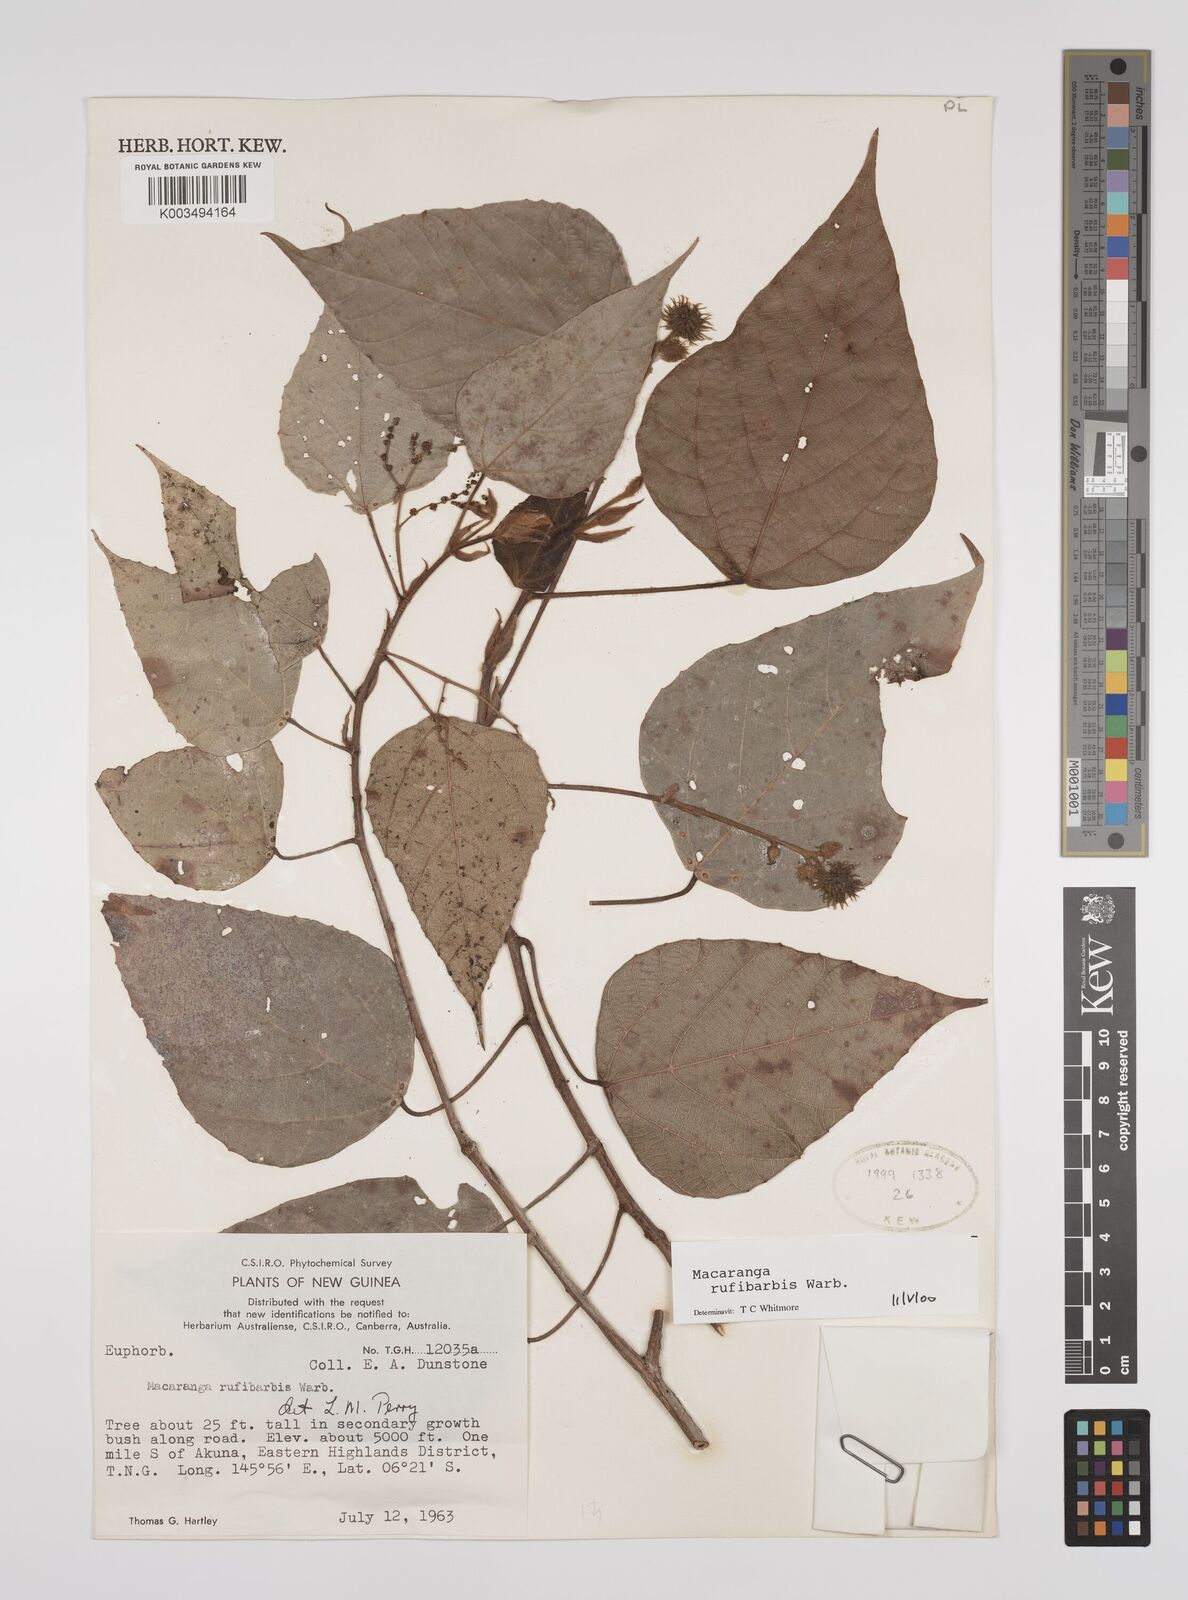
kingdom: Plantae
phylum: Tracheophyta
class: Magnoliopsida
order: Malpighiales
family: Euphorbiaceae
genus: Macaranga
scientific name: Macaranga rufibarbis
